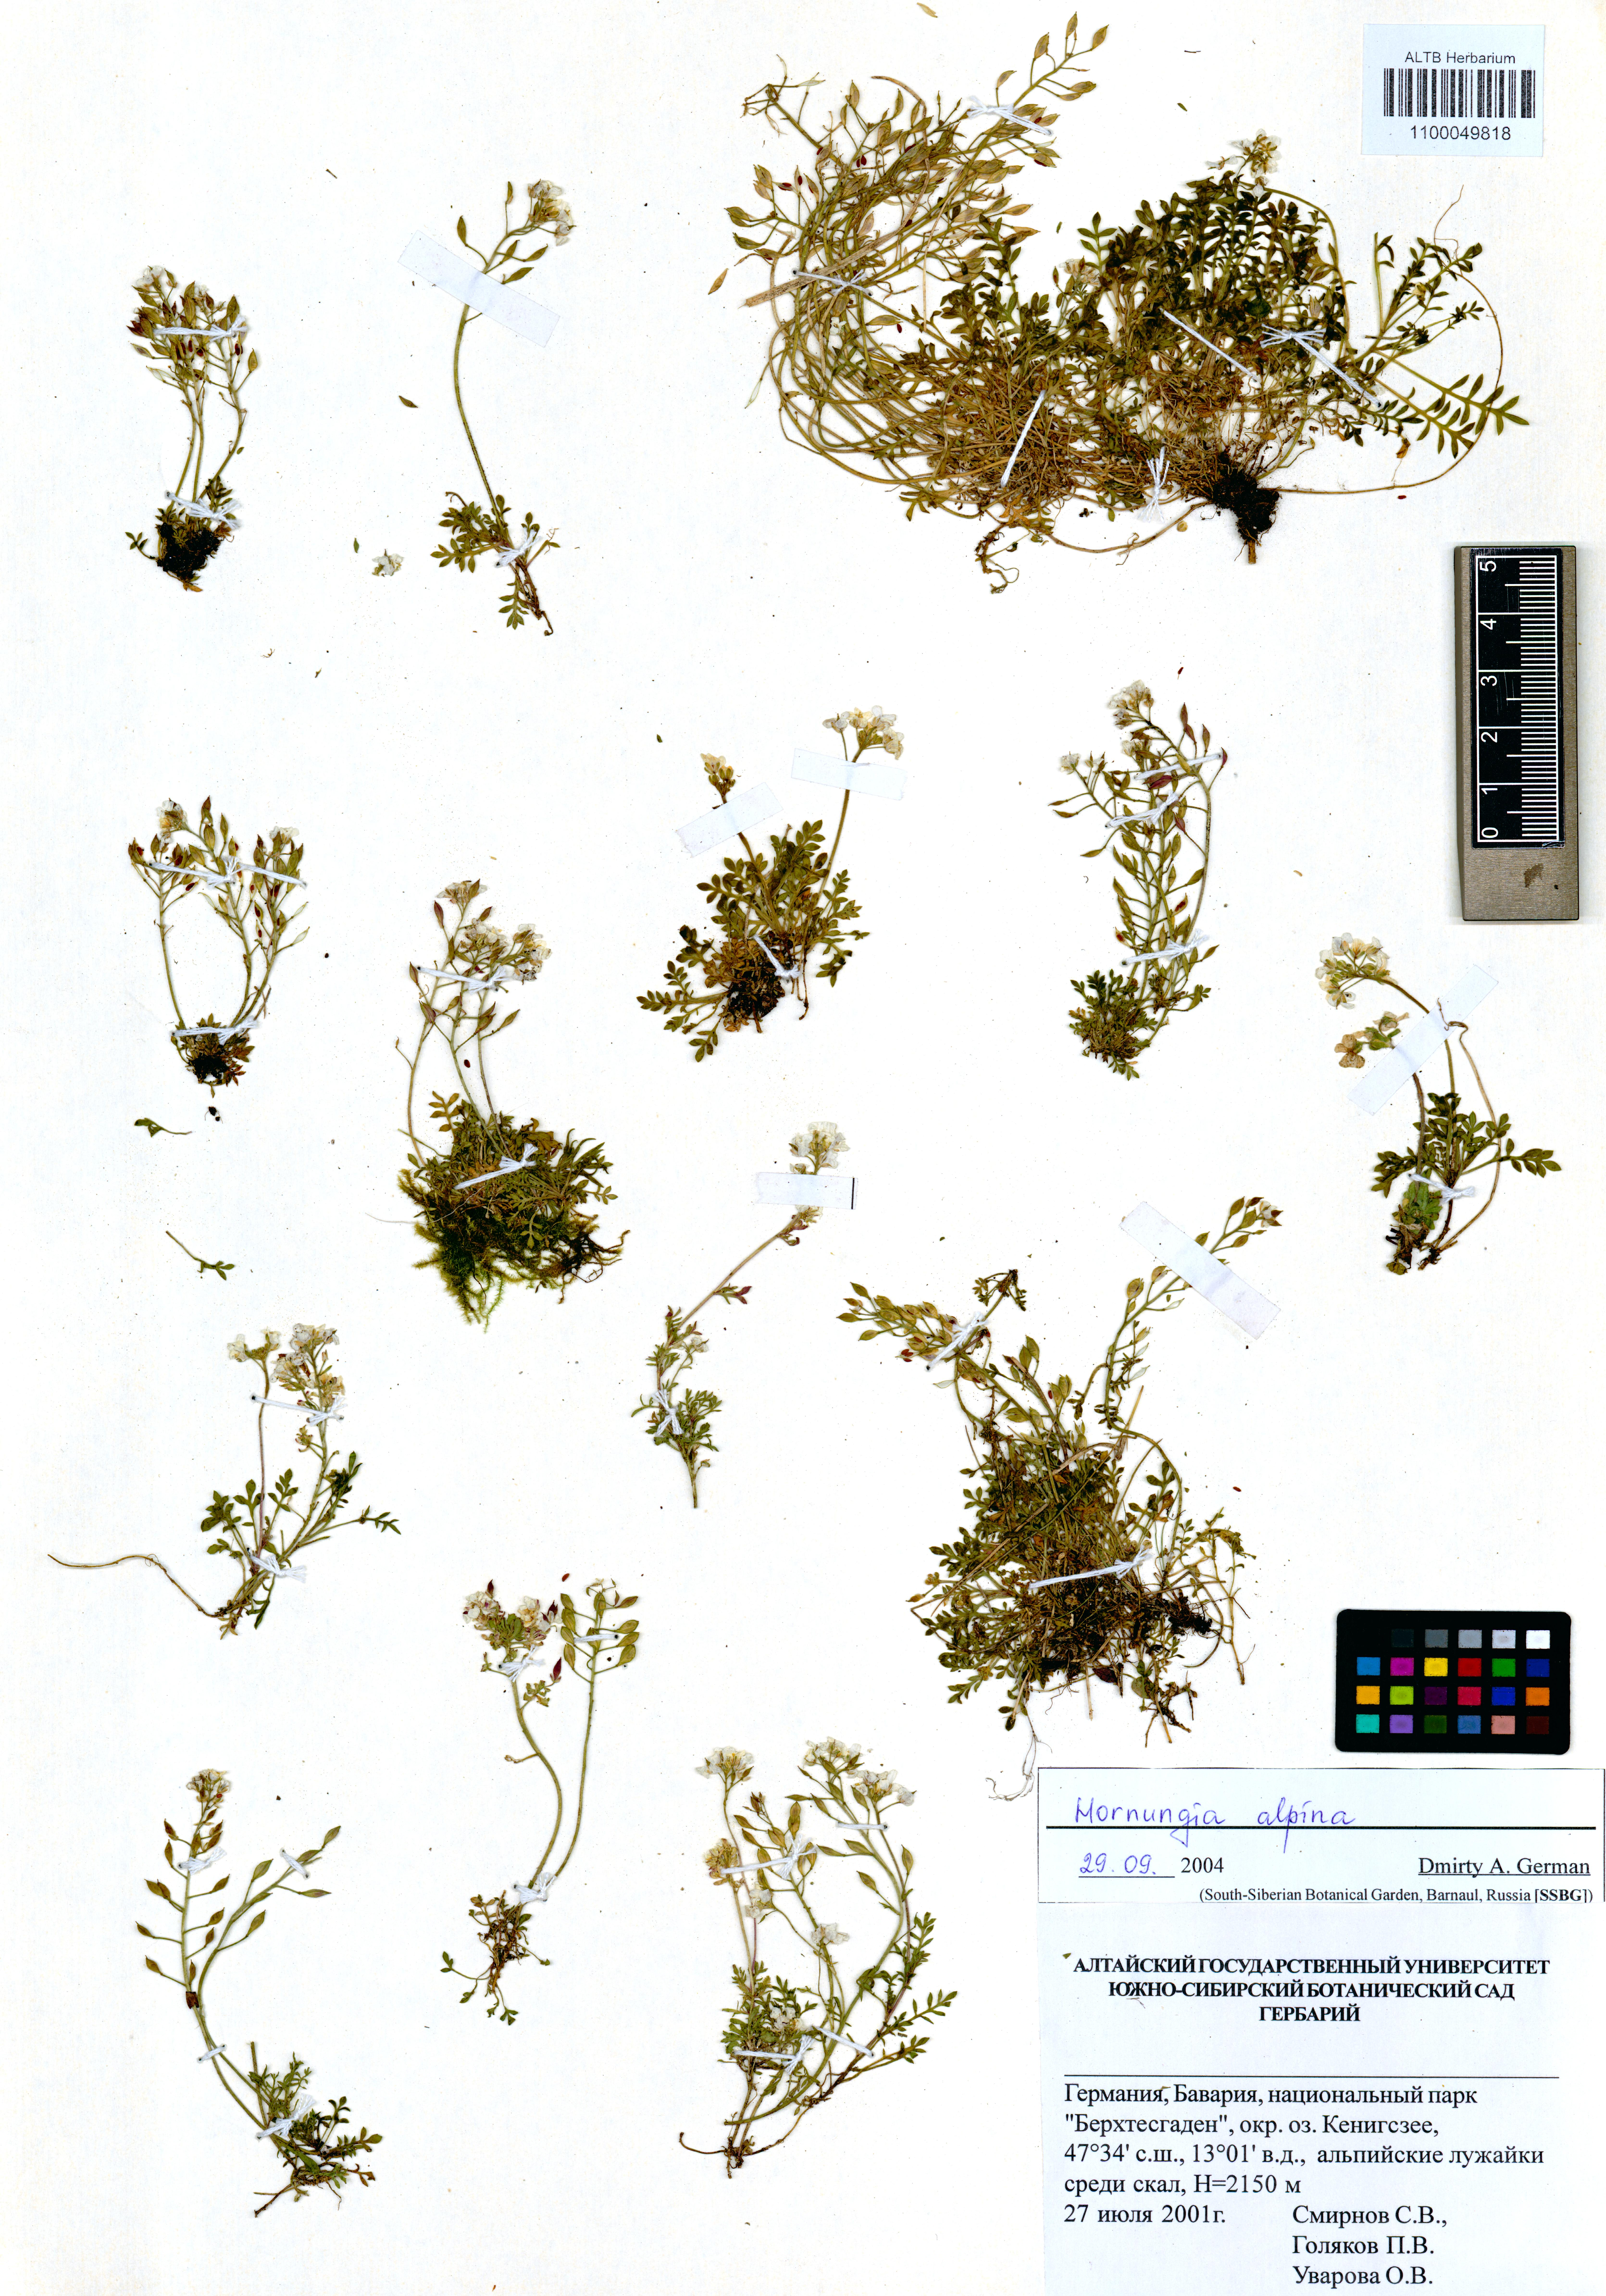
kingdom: Plantae
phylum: Tracheophyta
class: Magnoliopsida
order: Brassicales
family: Brassicaceae
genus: Hornungia
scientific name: Hornungia alpina
